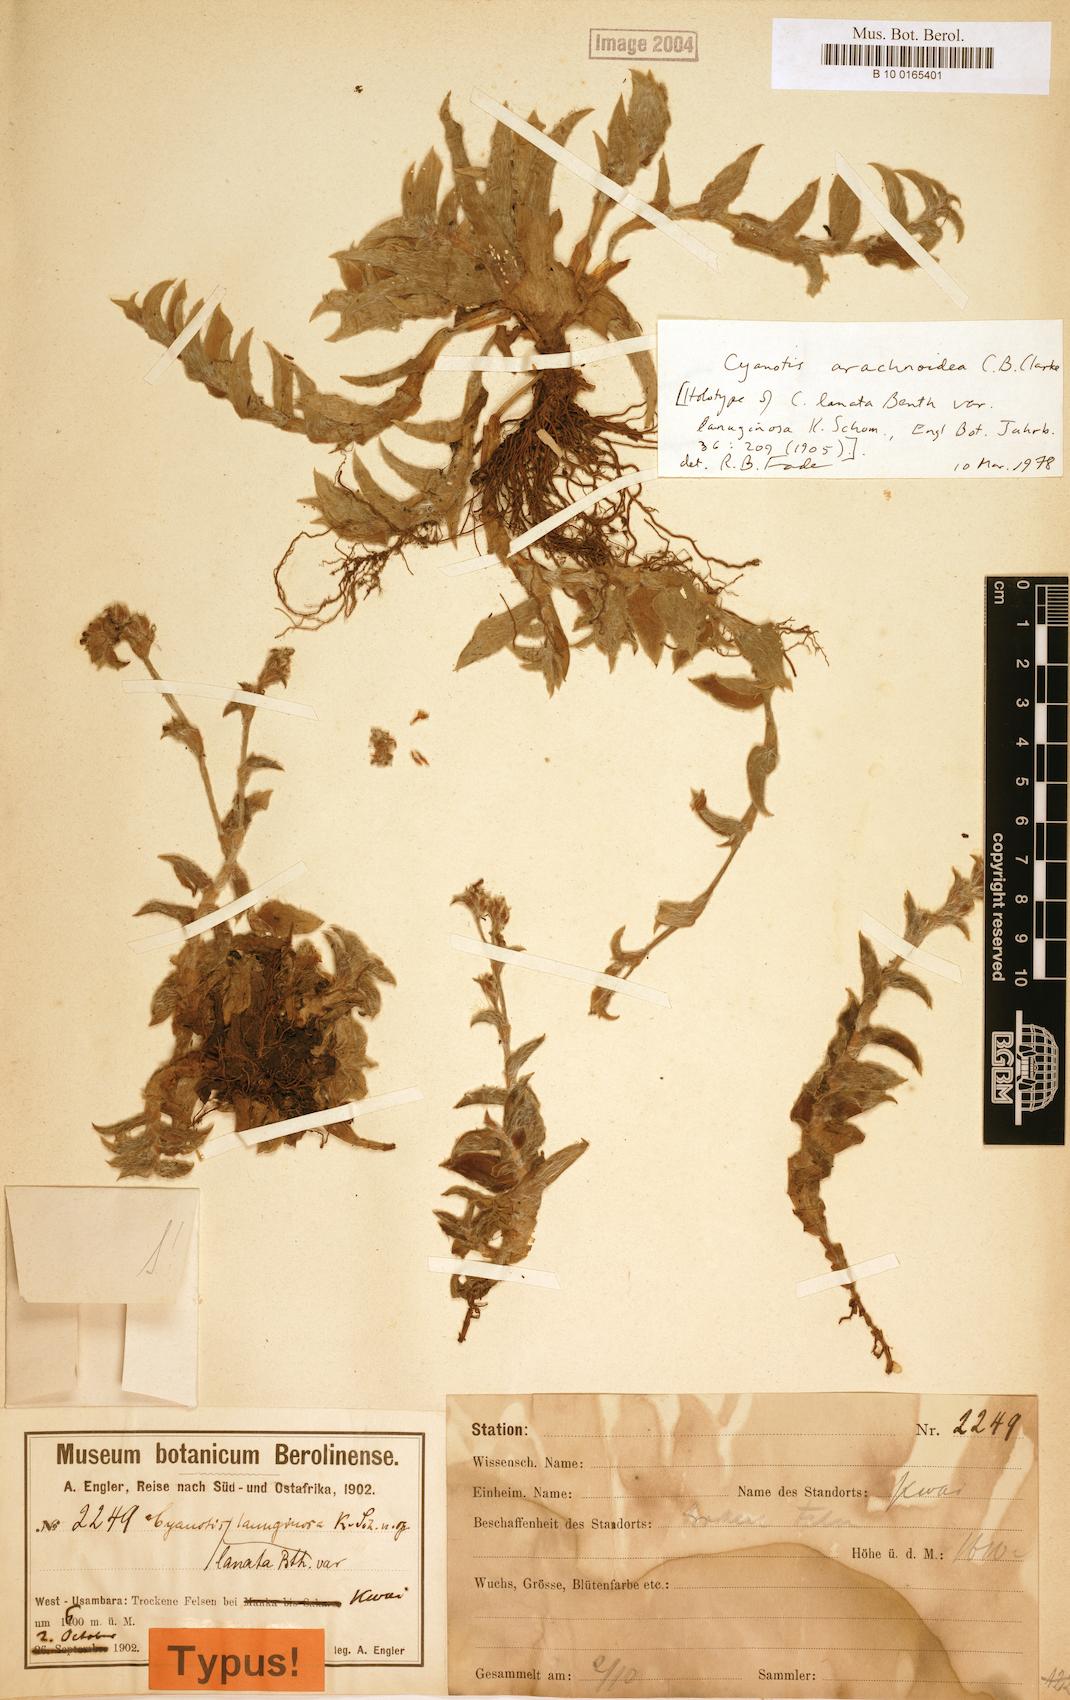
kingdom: Plantae
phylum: Tracheophyta
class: Liliopsida
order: Commelinales
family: Commelinaceae
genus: Cyanotis
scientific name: Cyanotis arachnoidea
